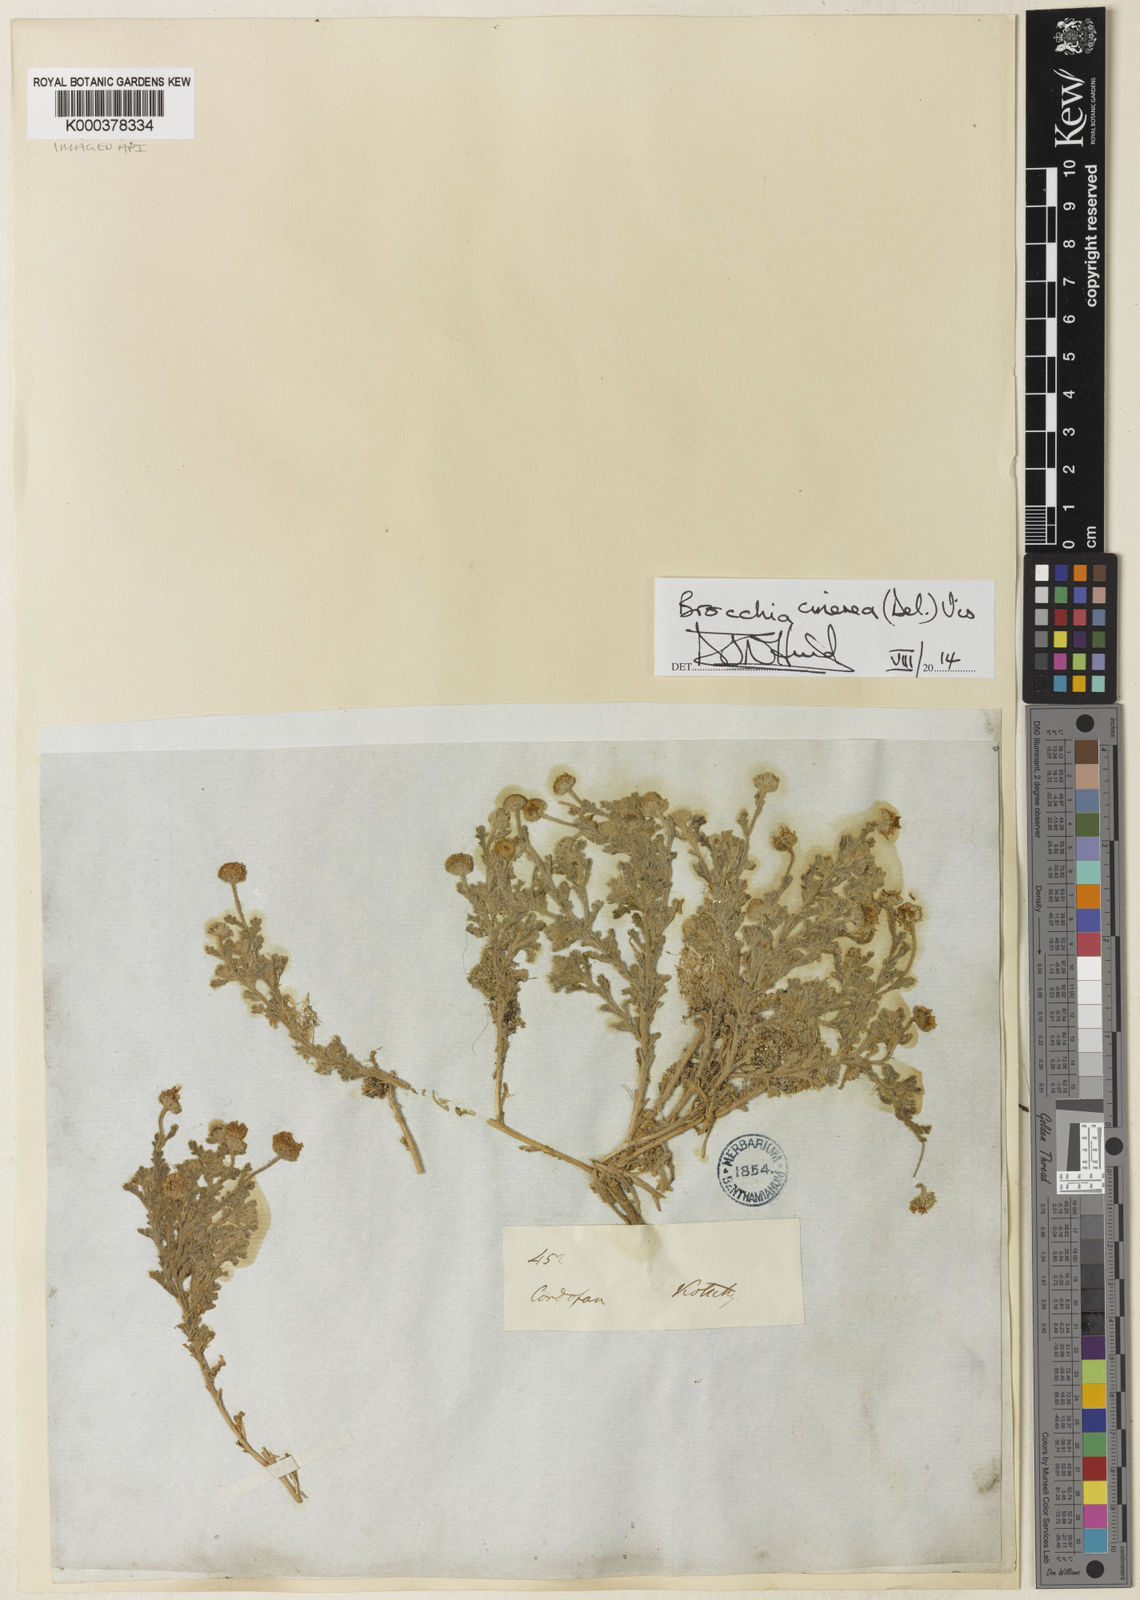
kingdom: Plantae
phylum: Tracheophyta
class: Magnoliopsida
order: Asterales
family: Asteraceae
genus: Brocchia
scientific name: Brocchia cinerea
